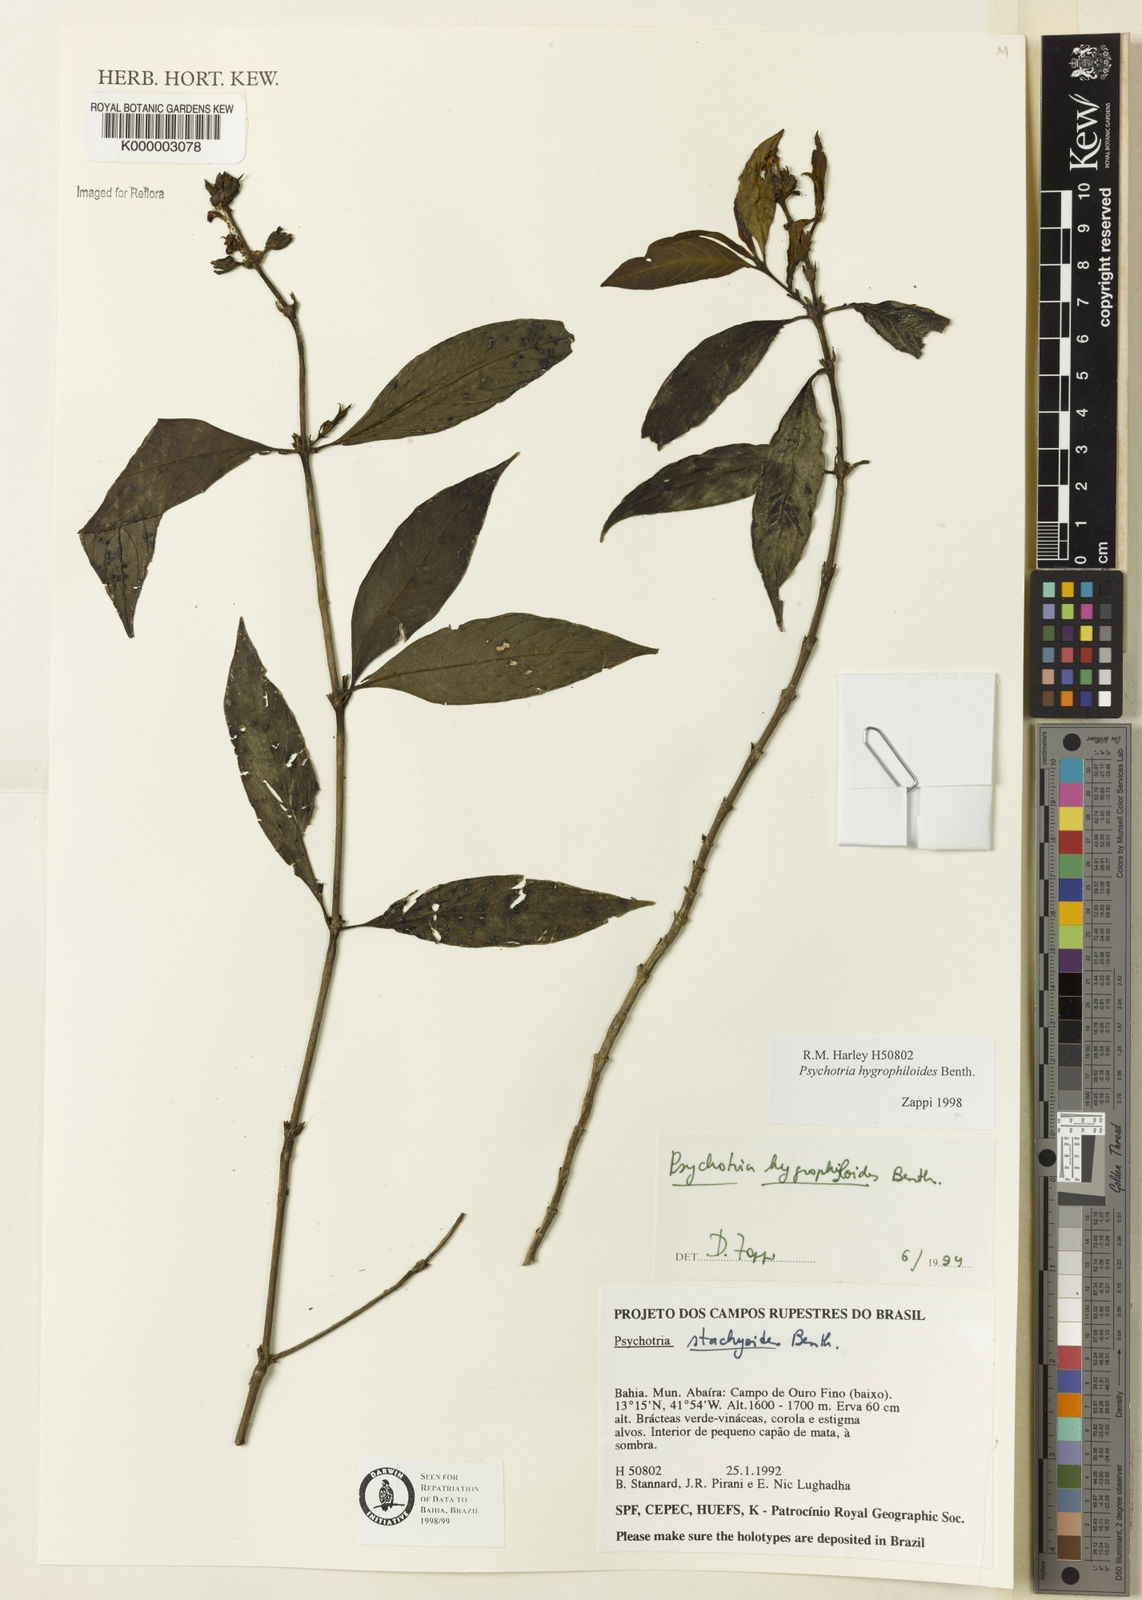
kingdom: Plantae
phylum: Tracheophyta
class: Magnoliopsida
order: Gentianales
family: Rubiaceae
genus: Psychotria
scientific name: Psychotria stachyoides
